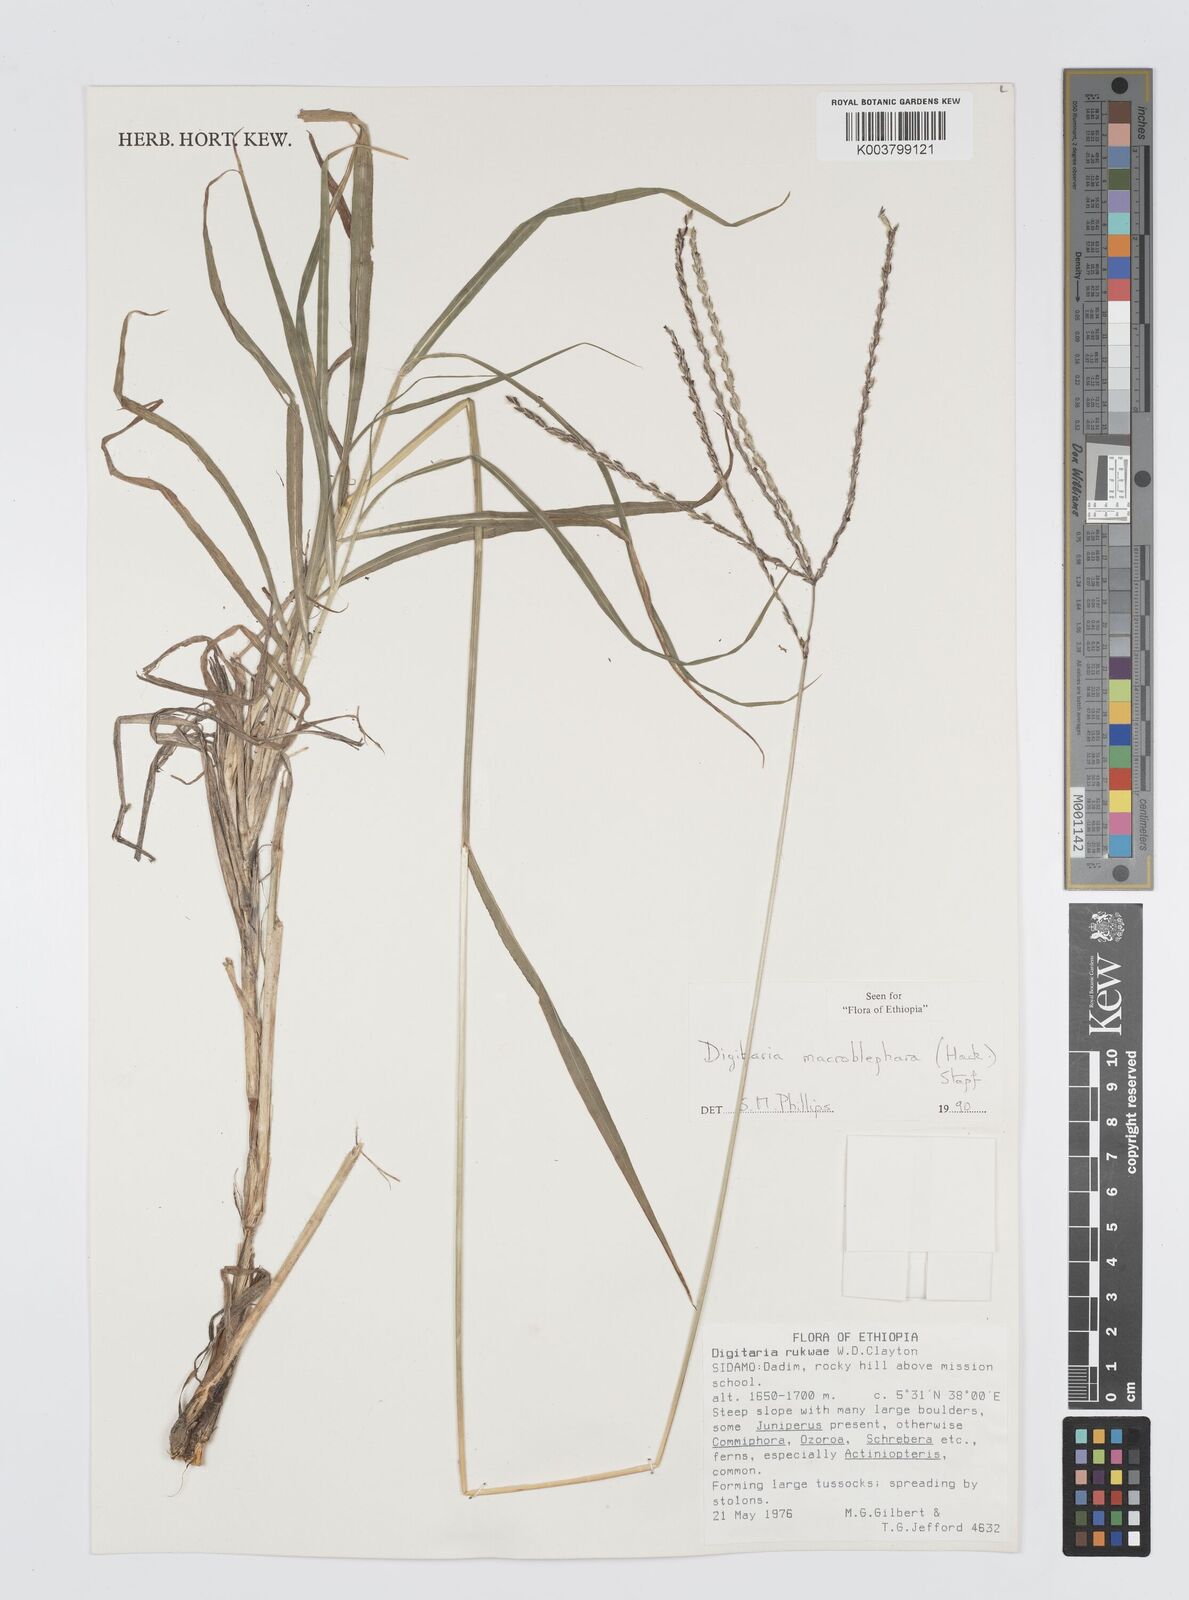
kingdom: Plantae
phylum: Tracheophyta
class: Liliopsida
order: Poales
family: Poaceae
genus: Digitaria
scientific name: Digitaria macroblephara
